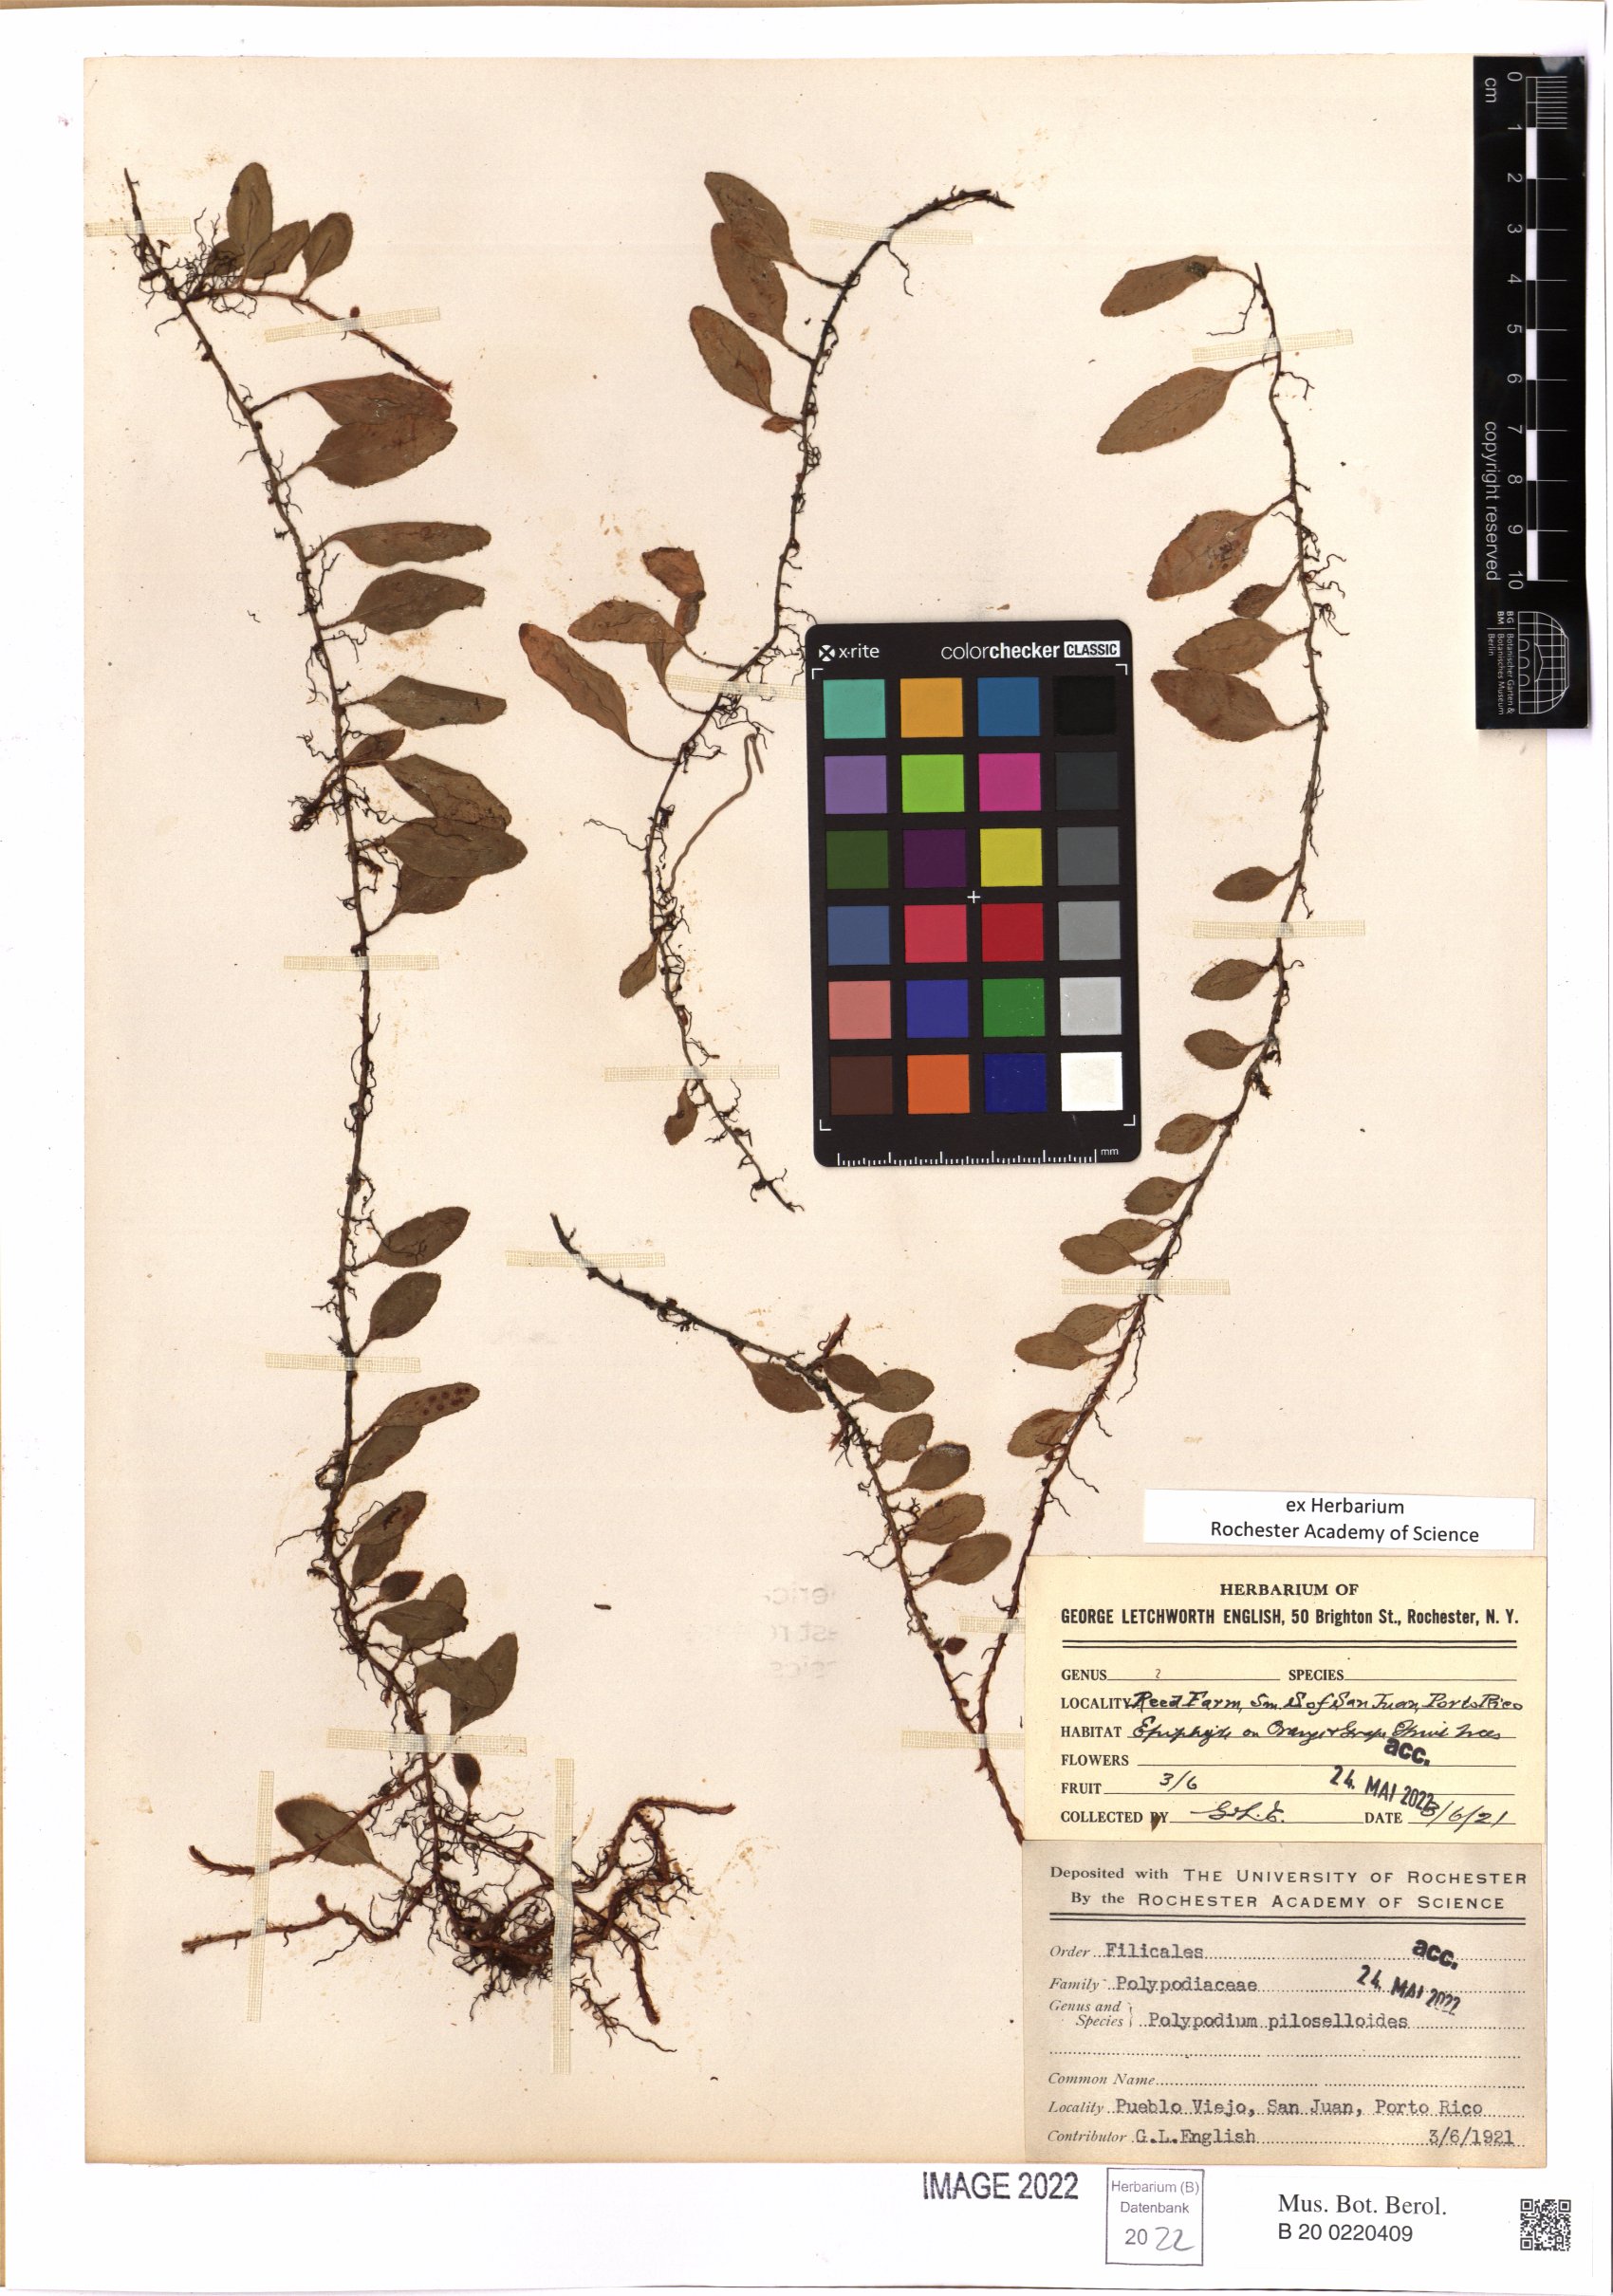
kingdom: Plantae
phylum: Tracheophyta
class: Polypodiopsida
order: Polypodiales
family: Polypodiaceae
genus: Microgramma
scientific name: Microgramma piloselloides
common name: Hairy snakefern
